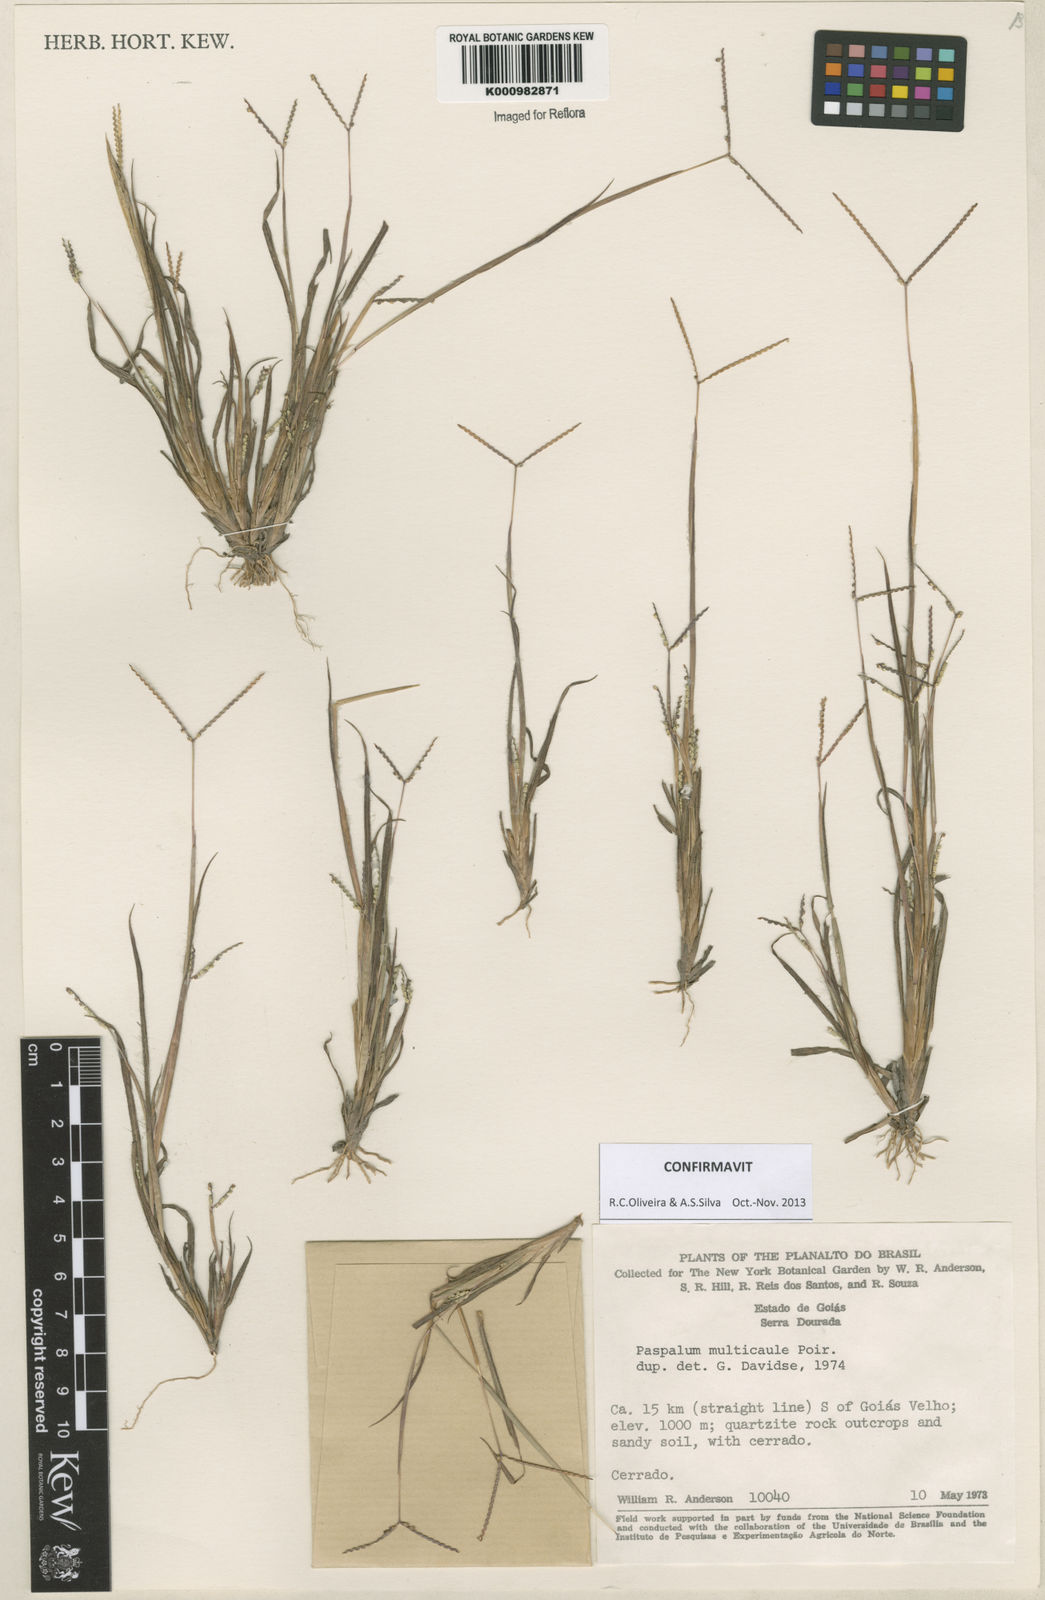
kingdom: Plantae
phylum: Tracheophyta
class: Liliopsida
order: Poales
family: Poaceae
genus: Paspalum
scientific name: Paspalum multicaule
